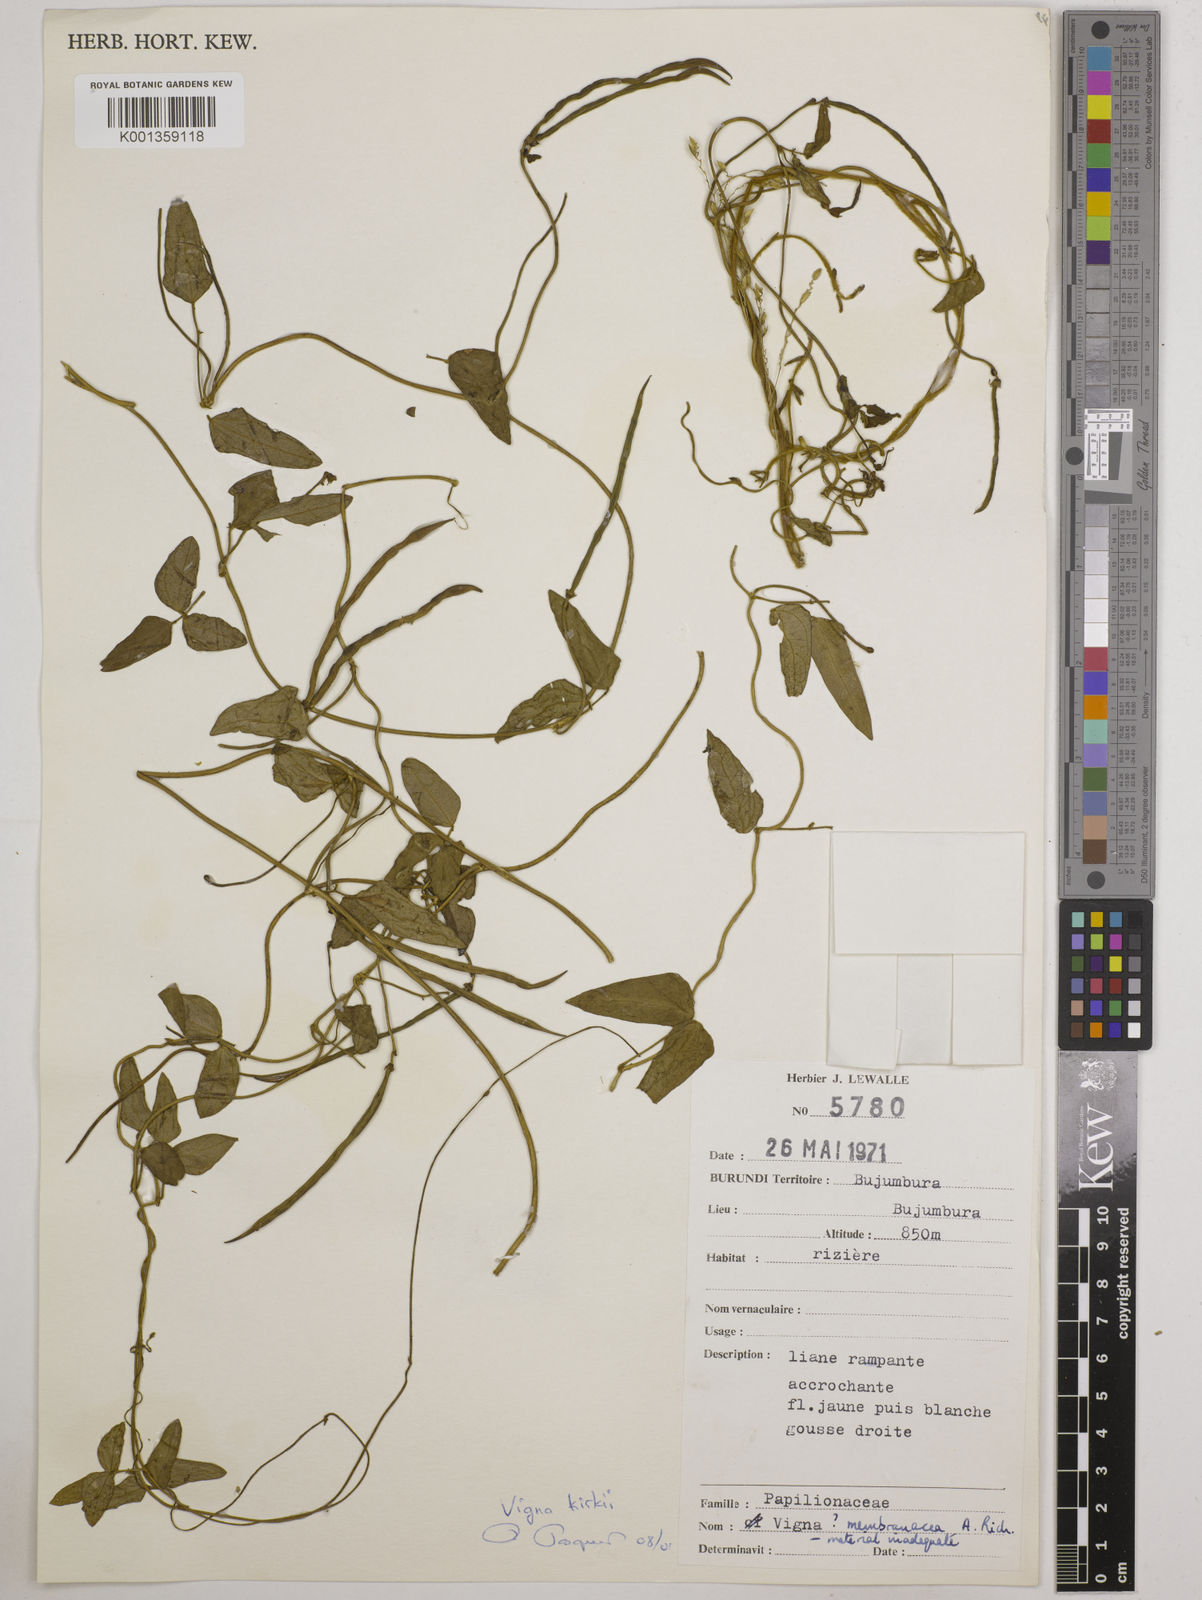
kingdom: Plantae
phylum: Tracheophyta
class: Magnoliopsida
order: Fabales
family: Fabaceae
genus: Vigna
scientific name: Vigna membranacea
